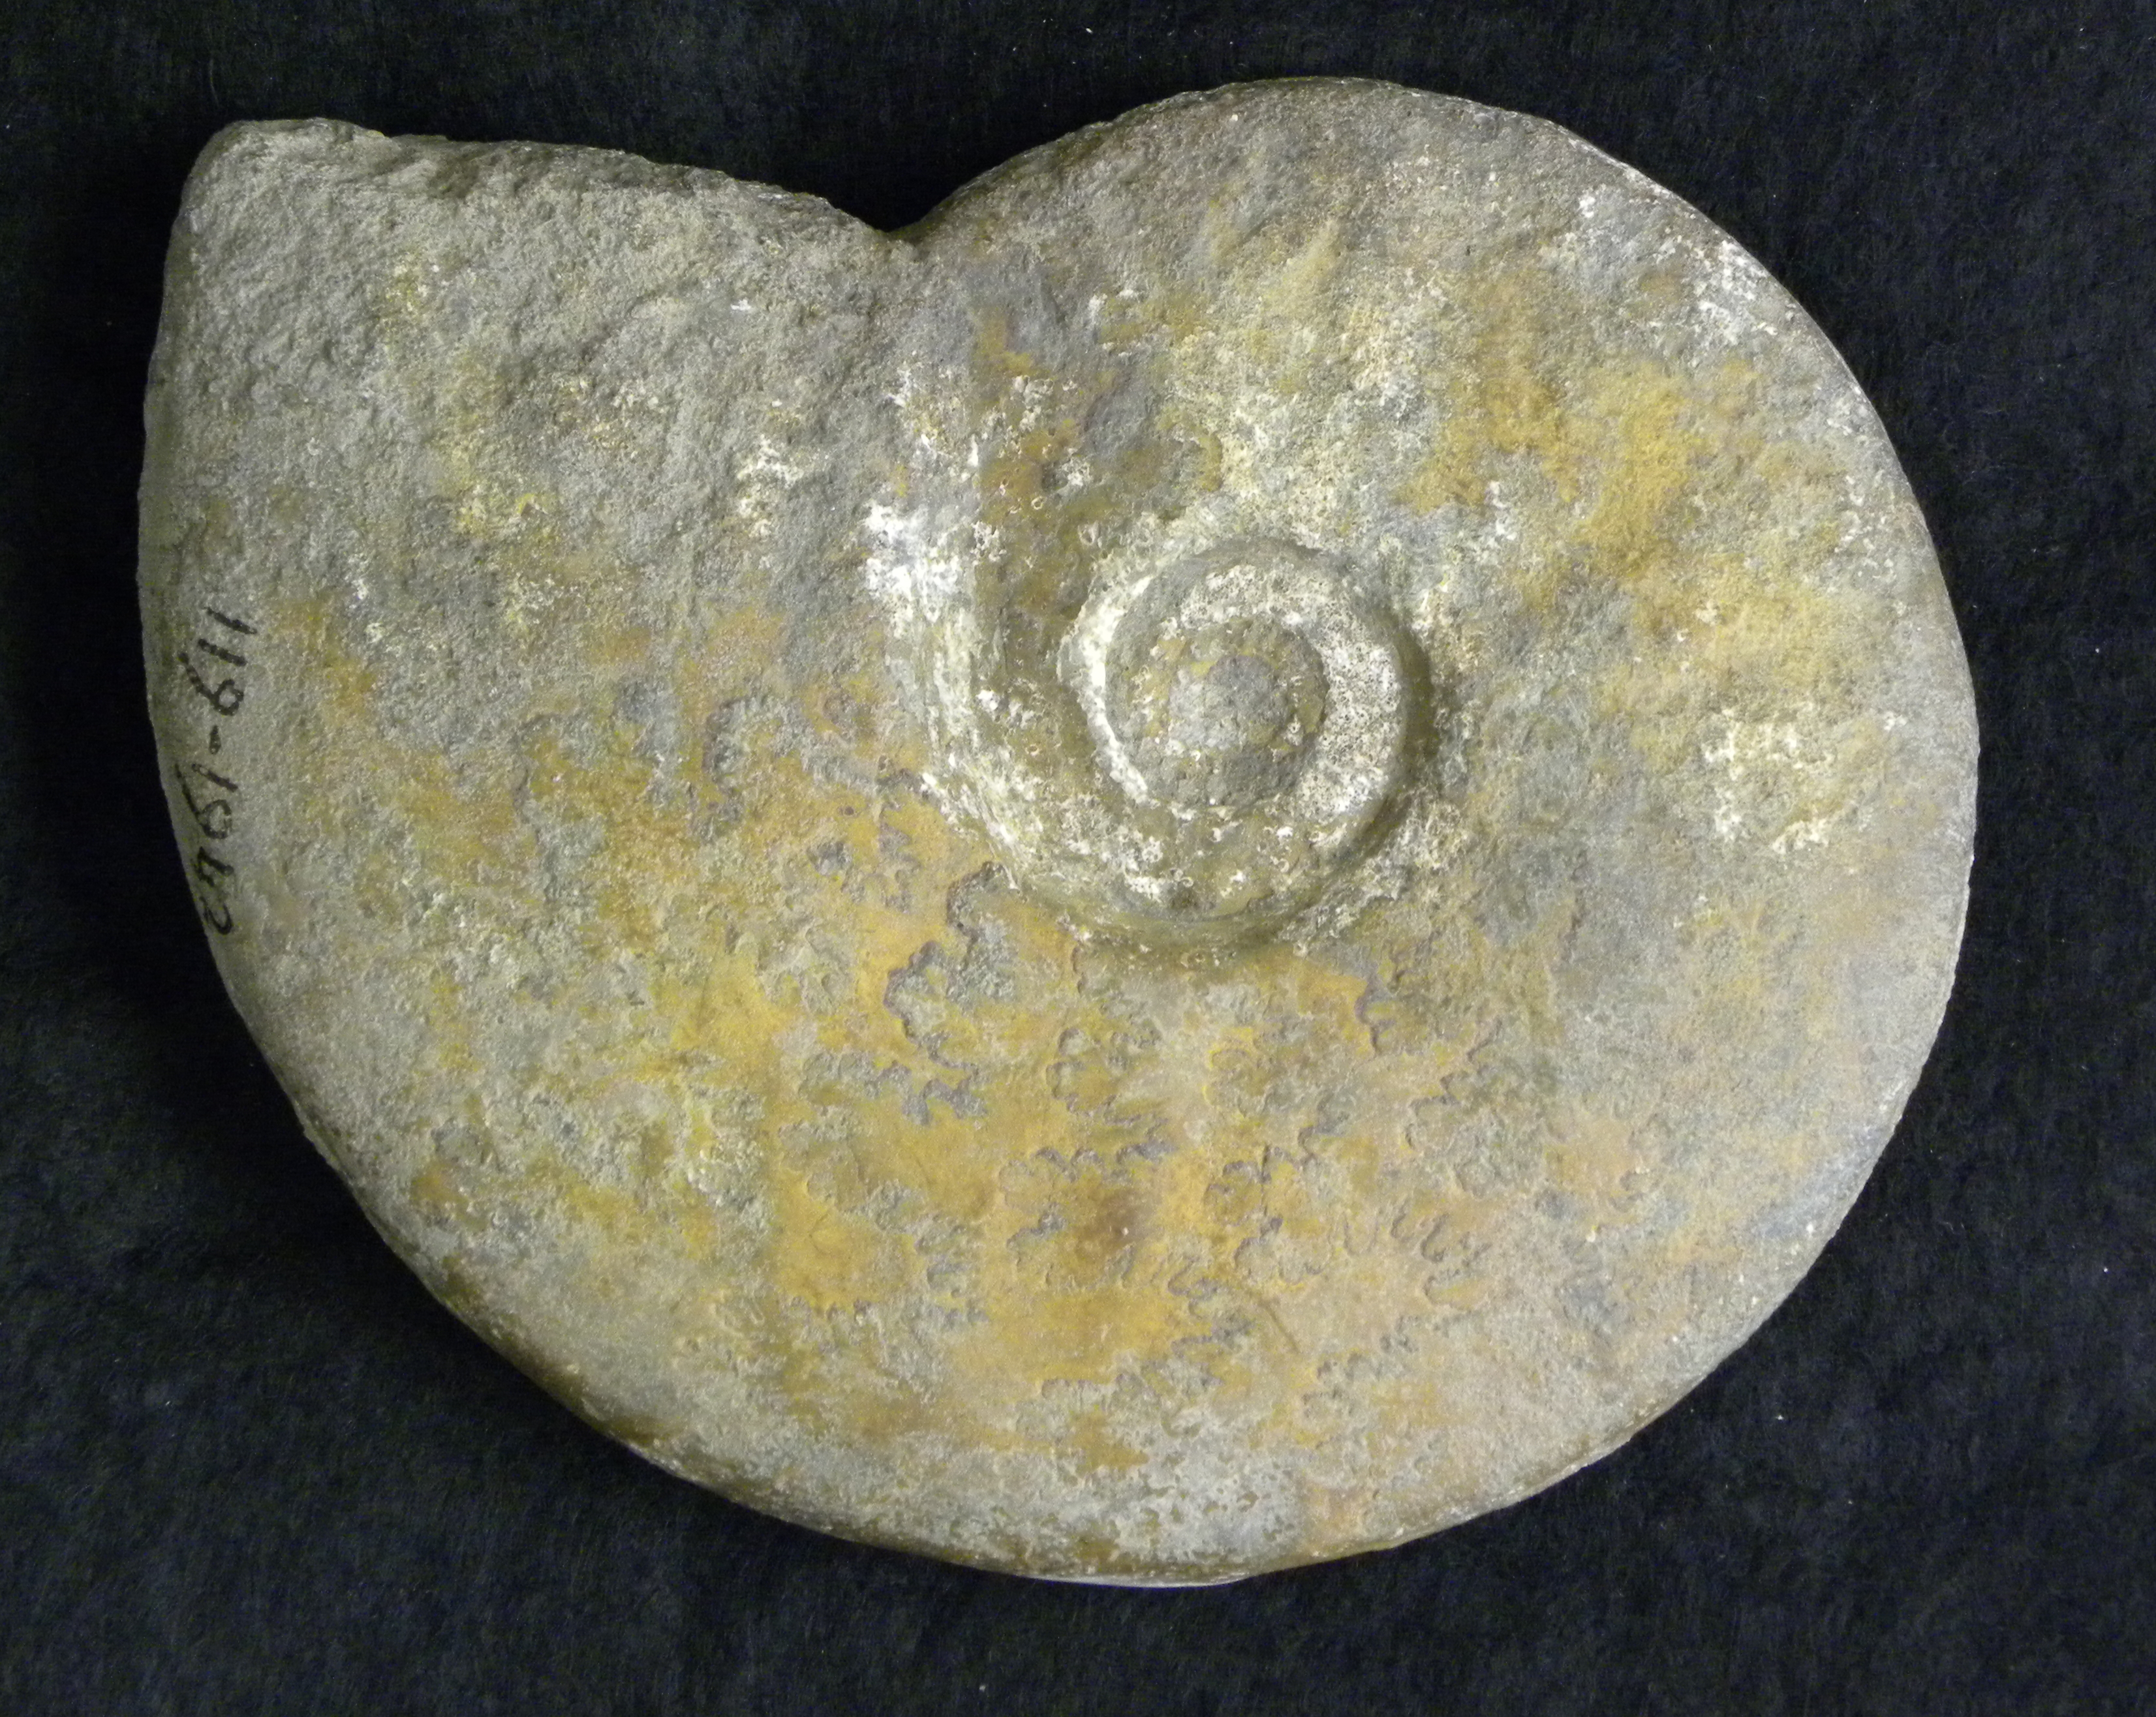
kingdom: Animalia
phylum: Mollusca
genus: Walkericeras
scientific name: Walkericeras
